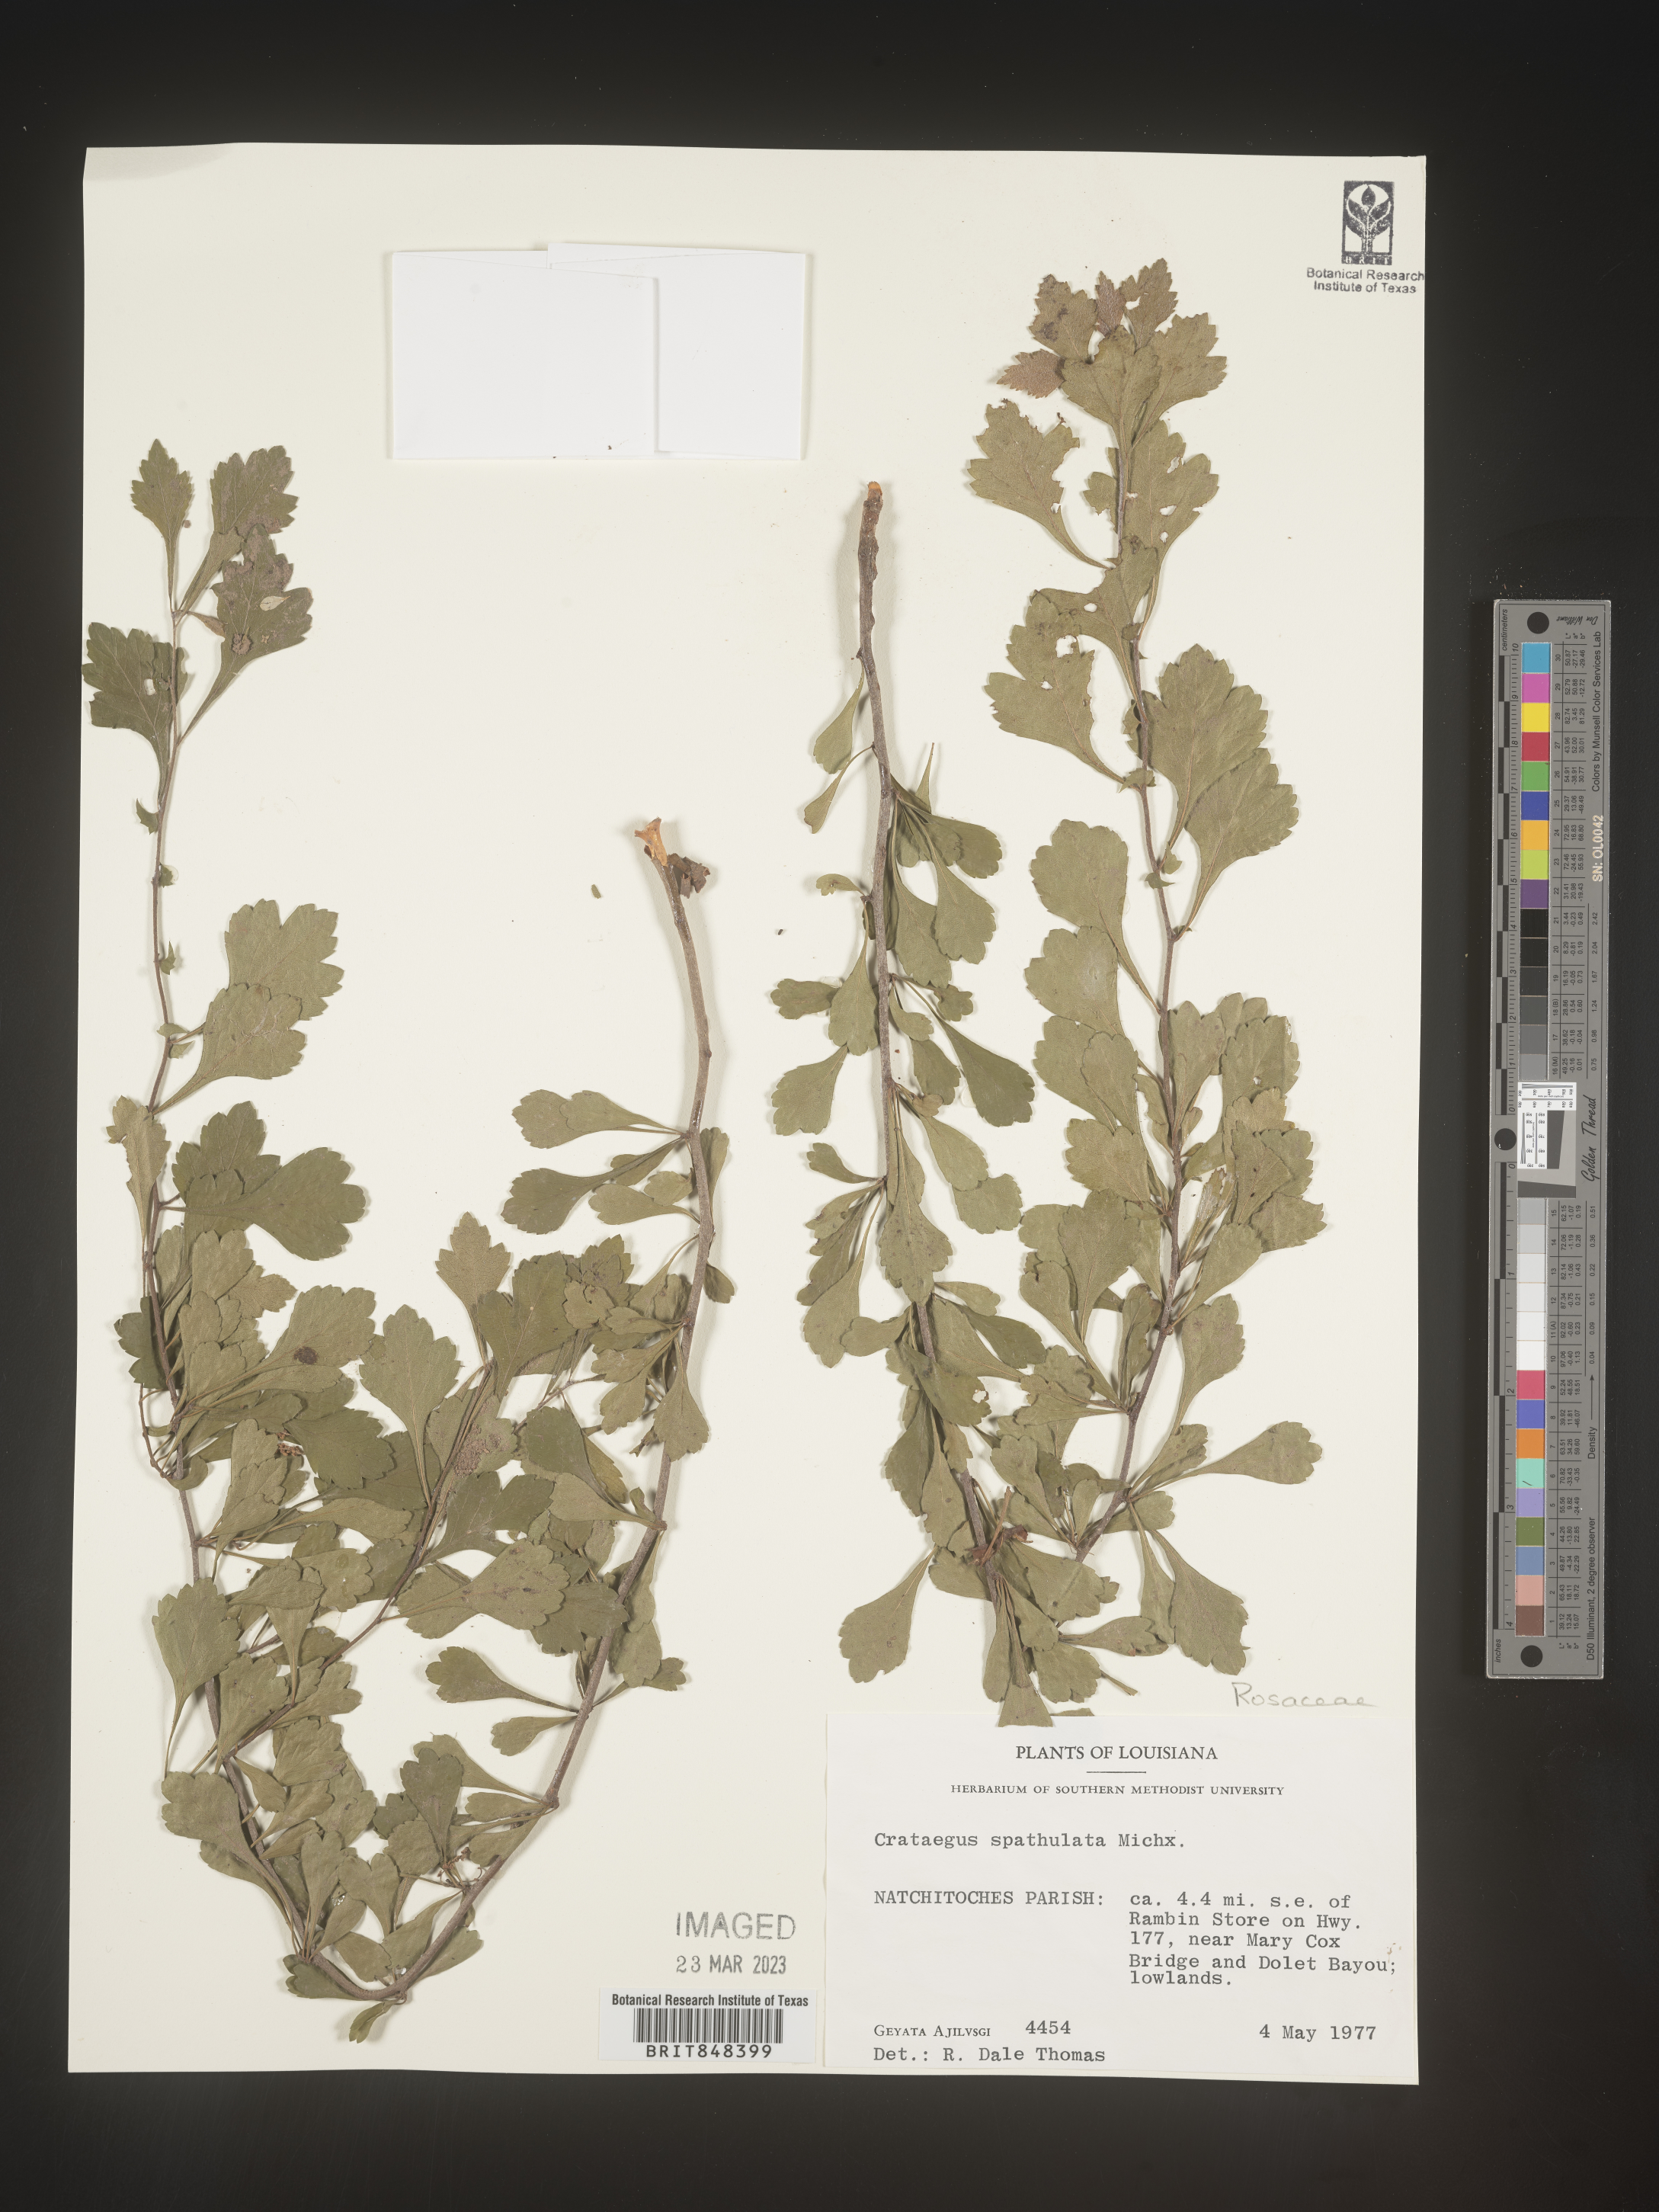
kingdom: Plantae
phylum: Tracheophyta
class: Magnoliopsida
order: Rosales
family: Rosaceae
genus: Crataegus
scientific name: Crataegus spathulata
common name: Littlehip hawthorn
